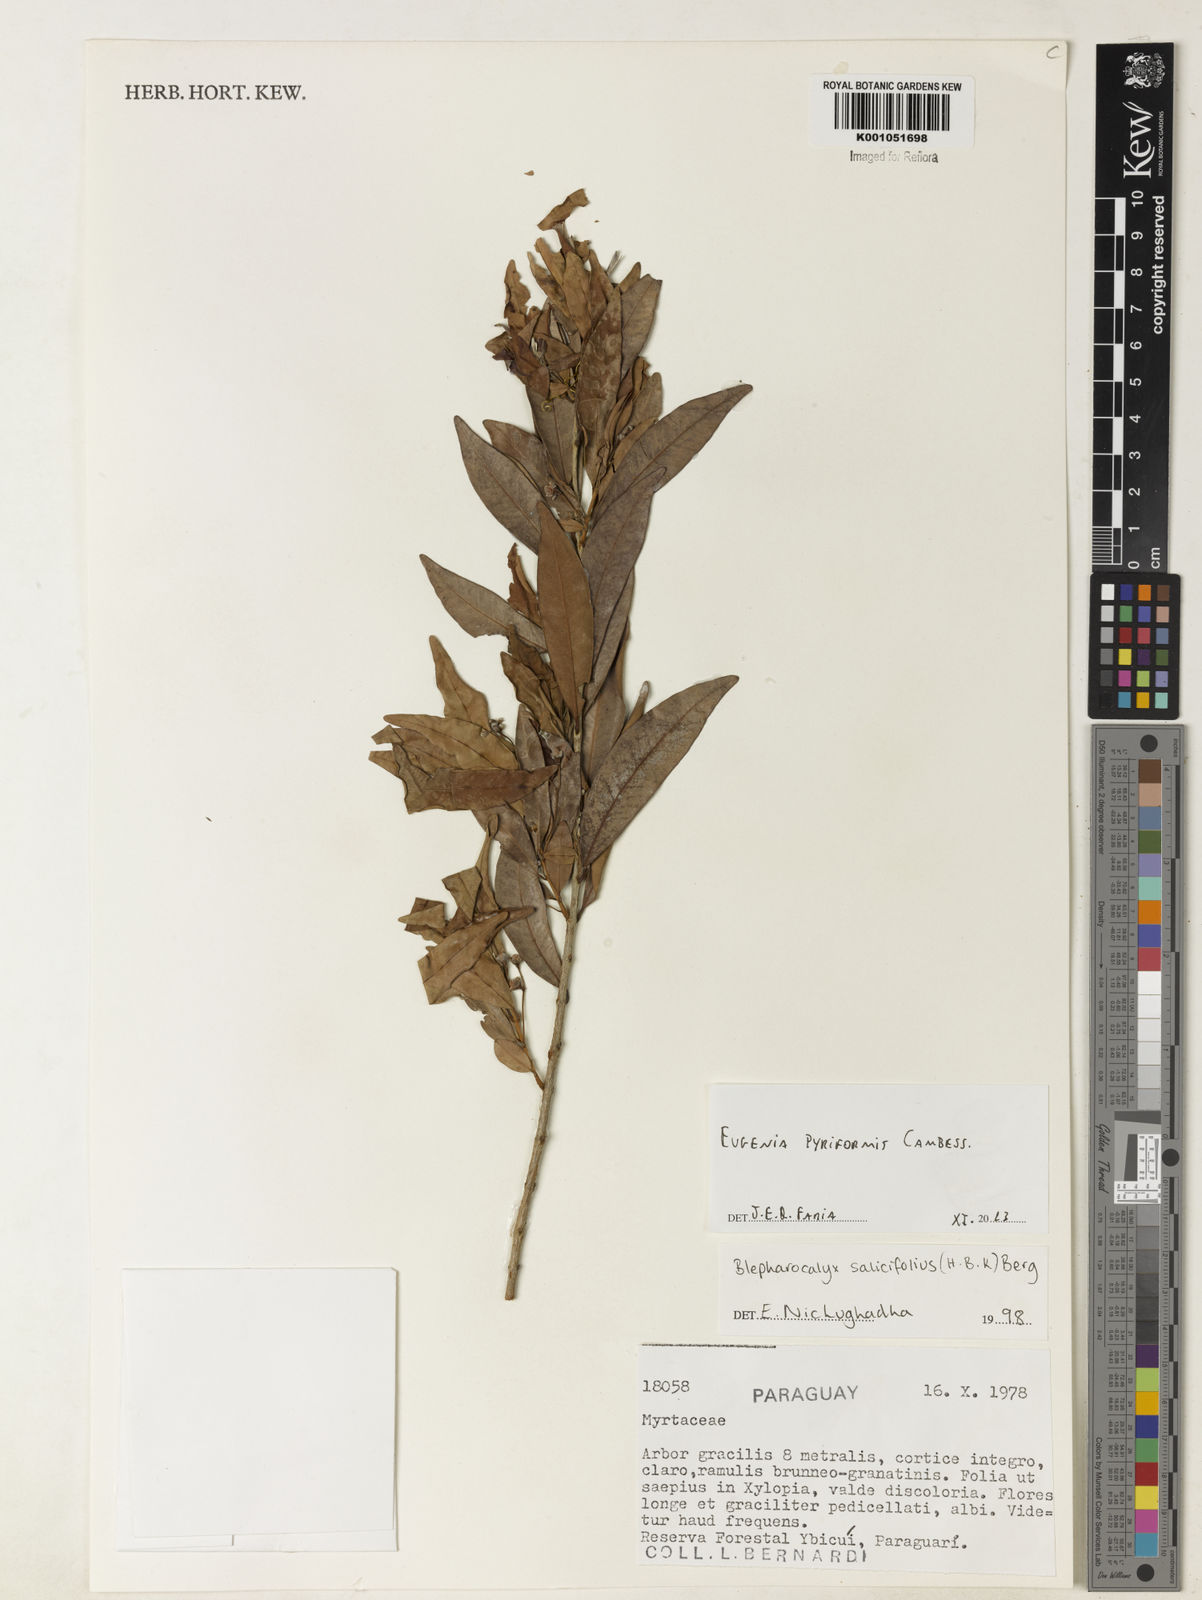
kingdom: Plantae
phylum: Tracheophyta
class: Magnoliopsida
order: Myrtales
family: Myrtaceae
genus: Eugenia
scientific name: Eugenia pyriformis
